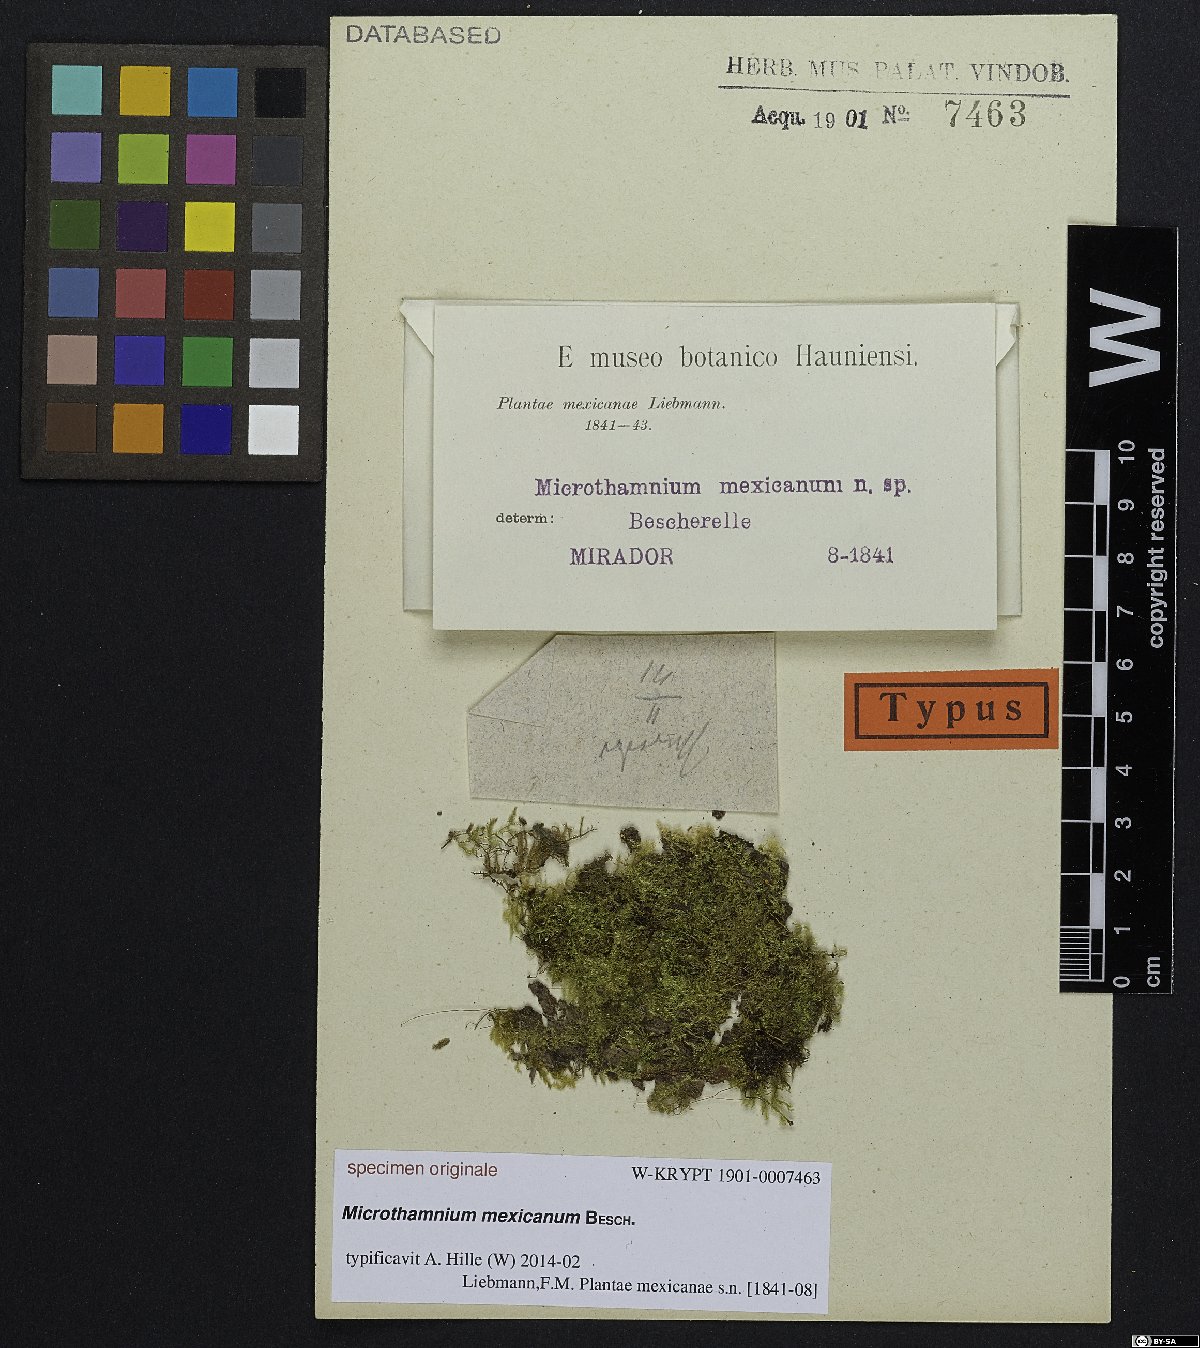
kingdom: Plantae
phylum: Bryophyta
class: Bryopsida
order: Hypnales
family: Hypnaceae
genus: Mittenothamnium
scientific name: Mittenothamnium reptans
